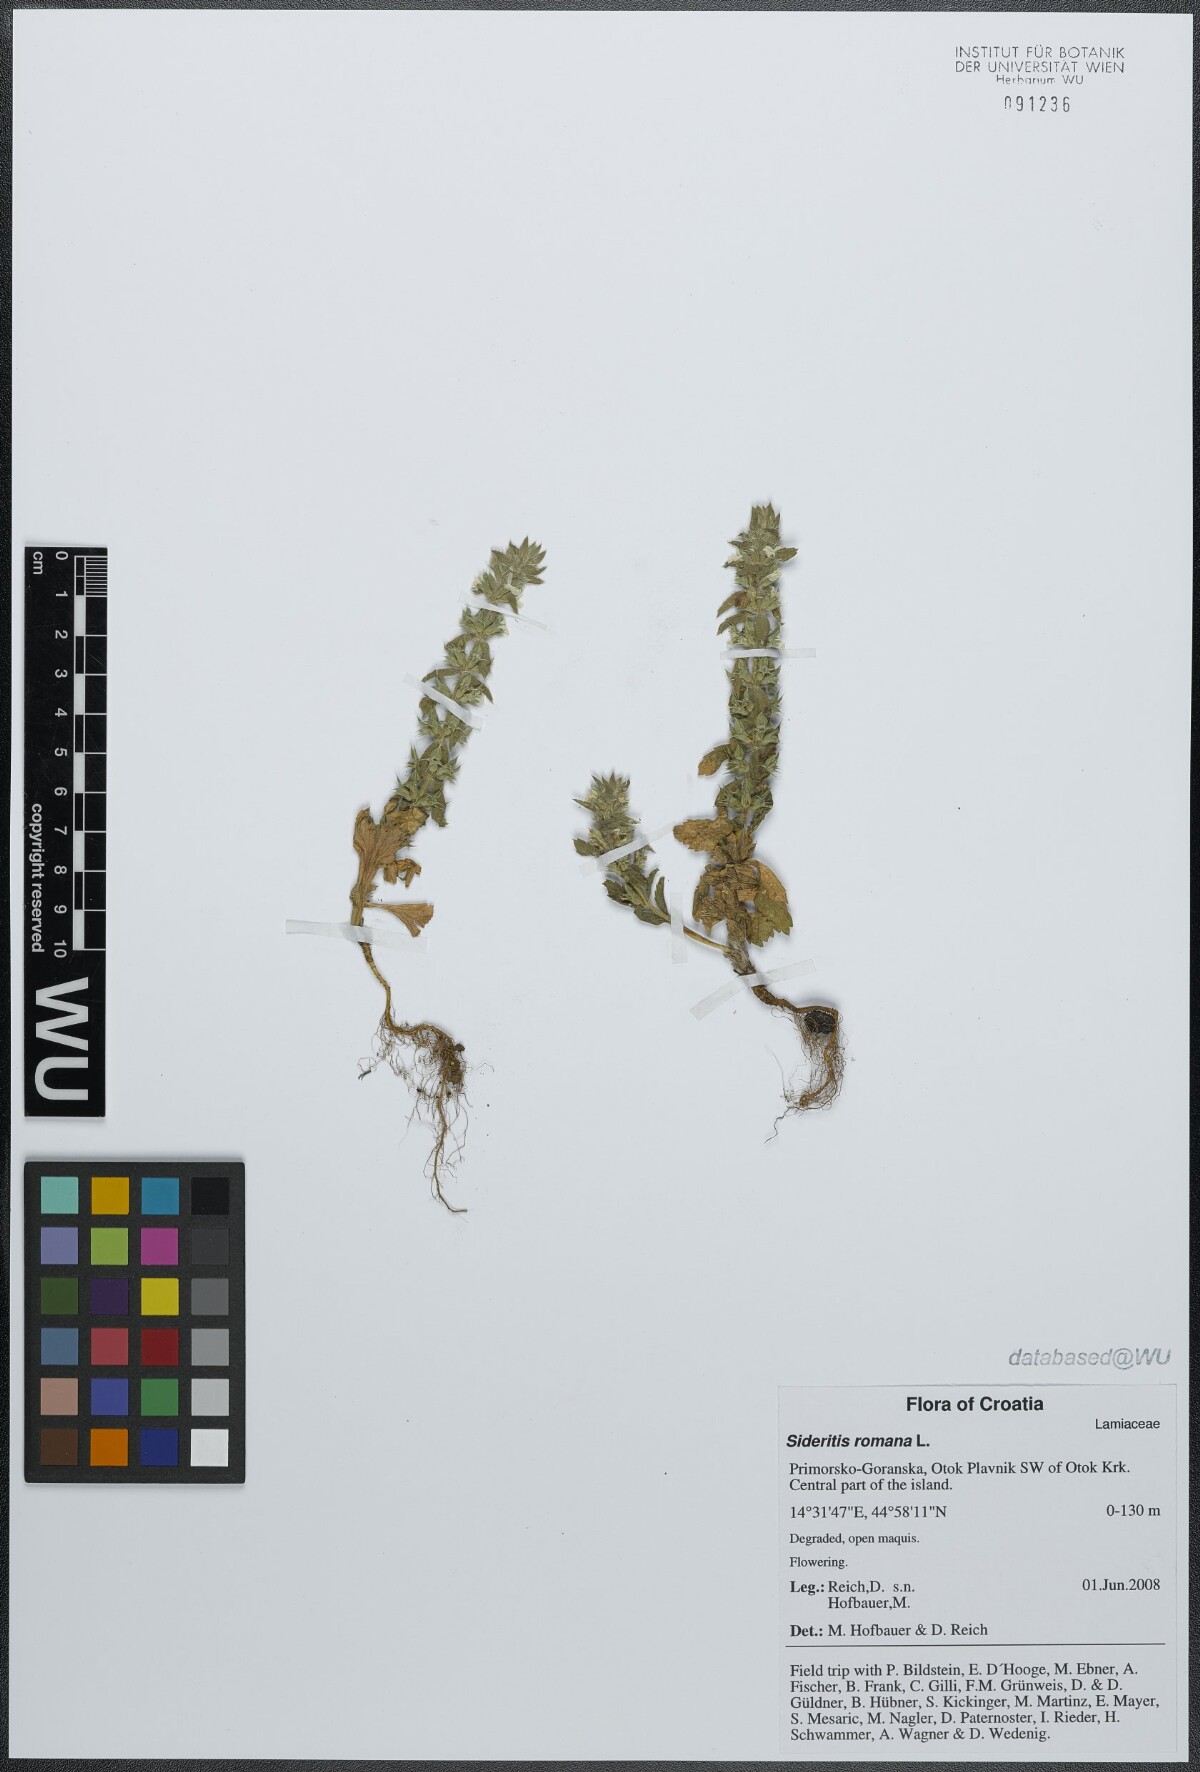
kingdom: Plantae
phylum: Tracheophyta
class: Magnoliopsida
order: Lamiales
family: Lamiaceae
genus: Sideritis
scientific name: Sideritis romana
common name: Simplebeak ironwort
